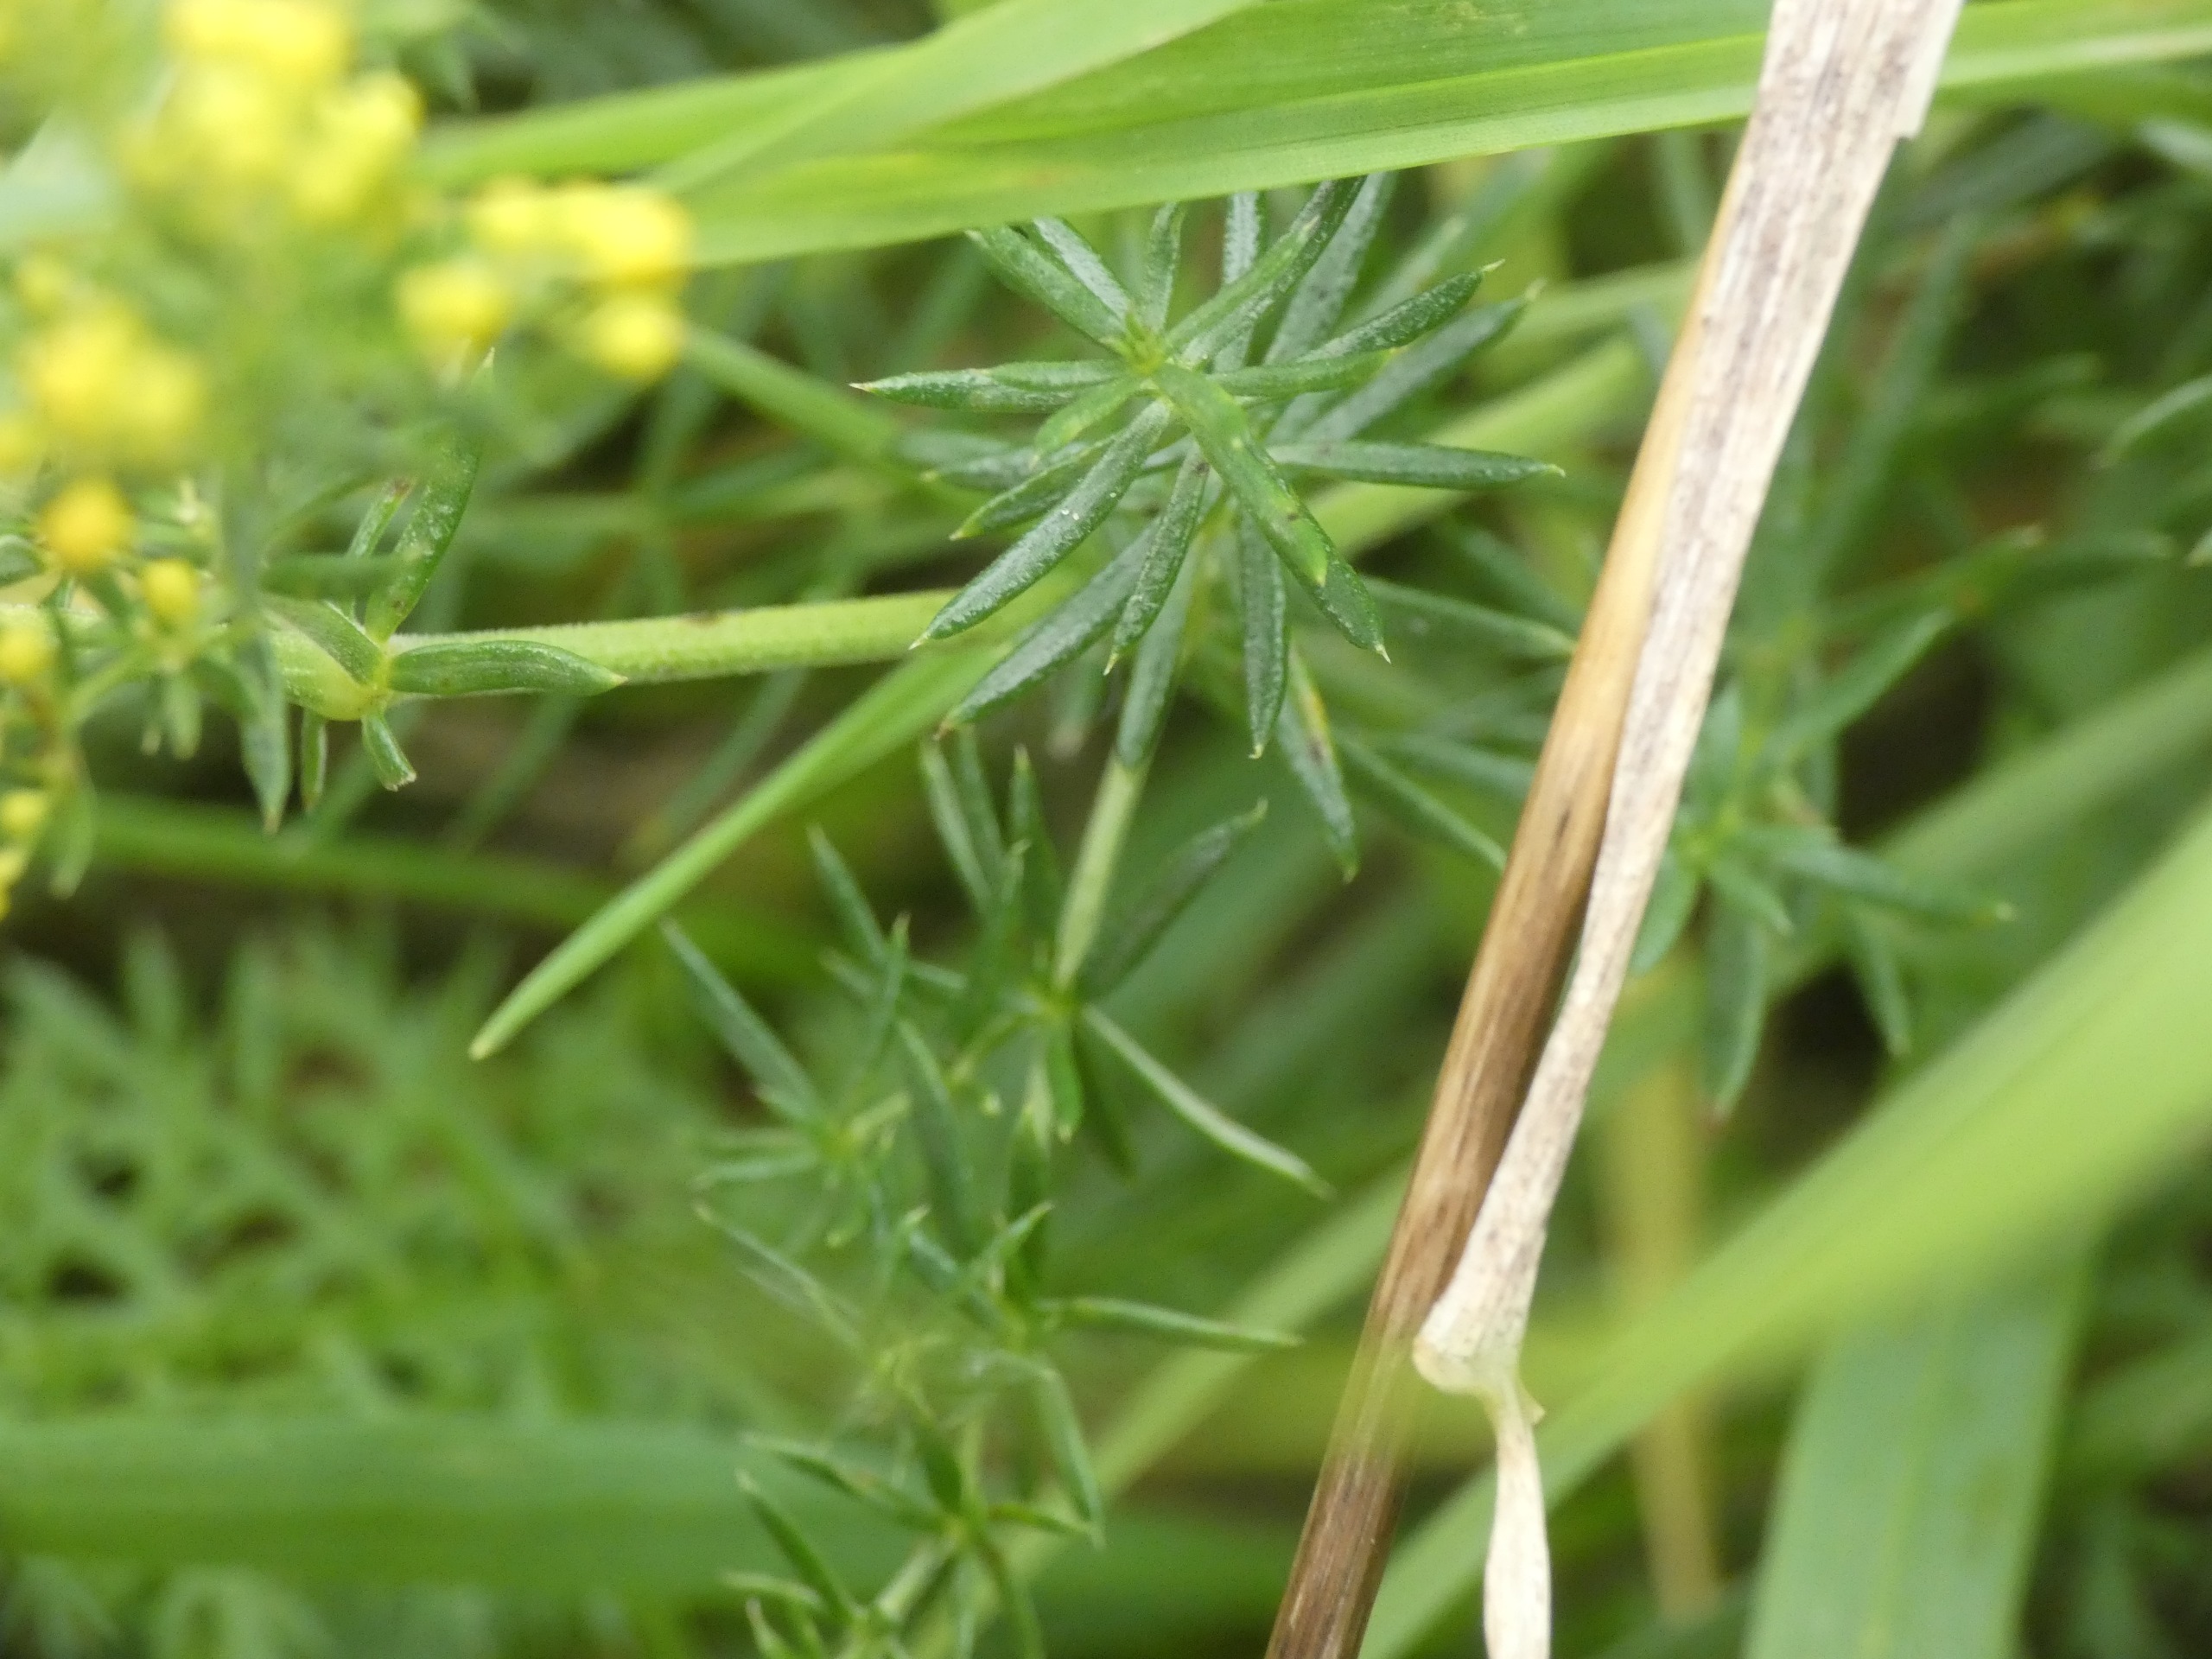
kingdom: Plantae
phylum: Tracheophyta
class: Magnoliopsida
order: Gentianales
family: Rubiaceae
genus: Galium
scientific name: Galium verum
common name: Gul snerre
